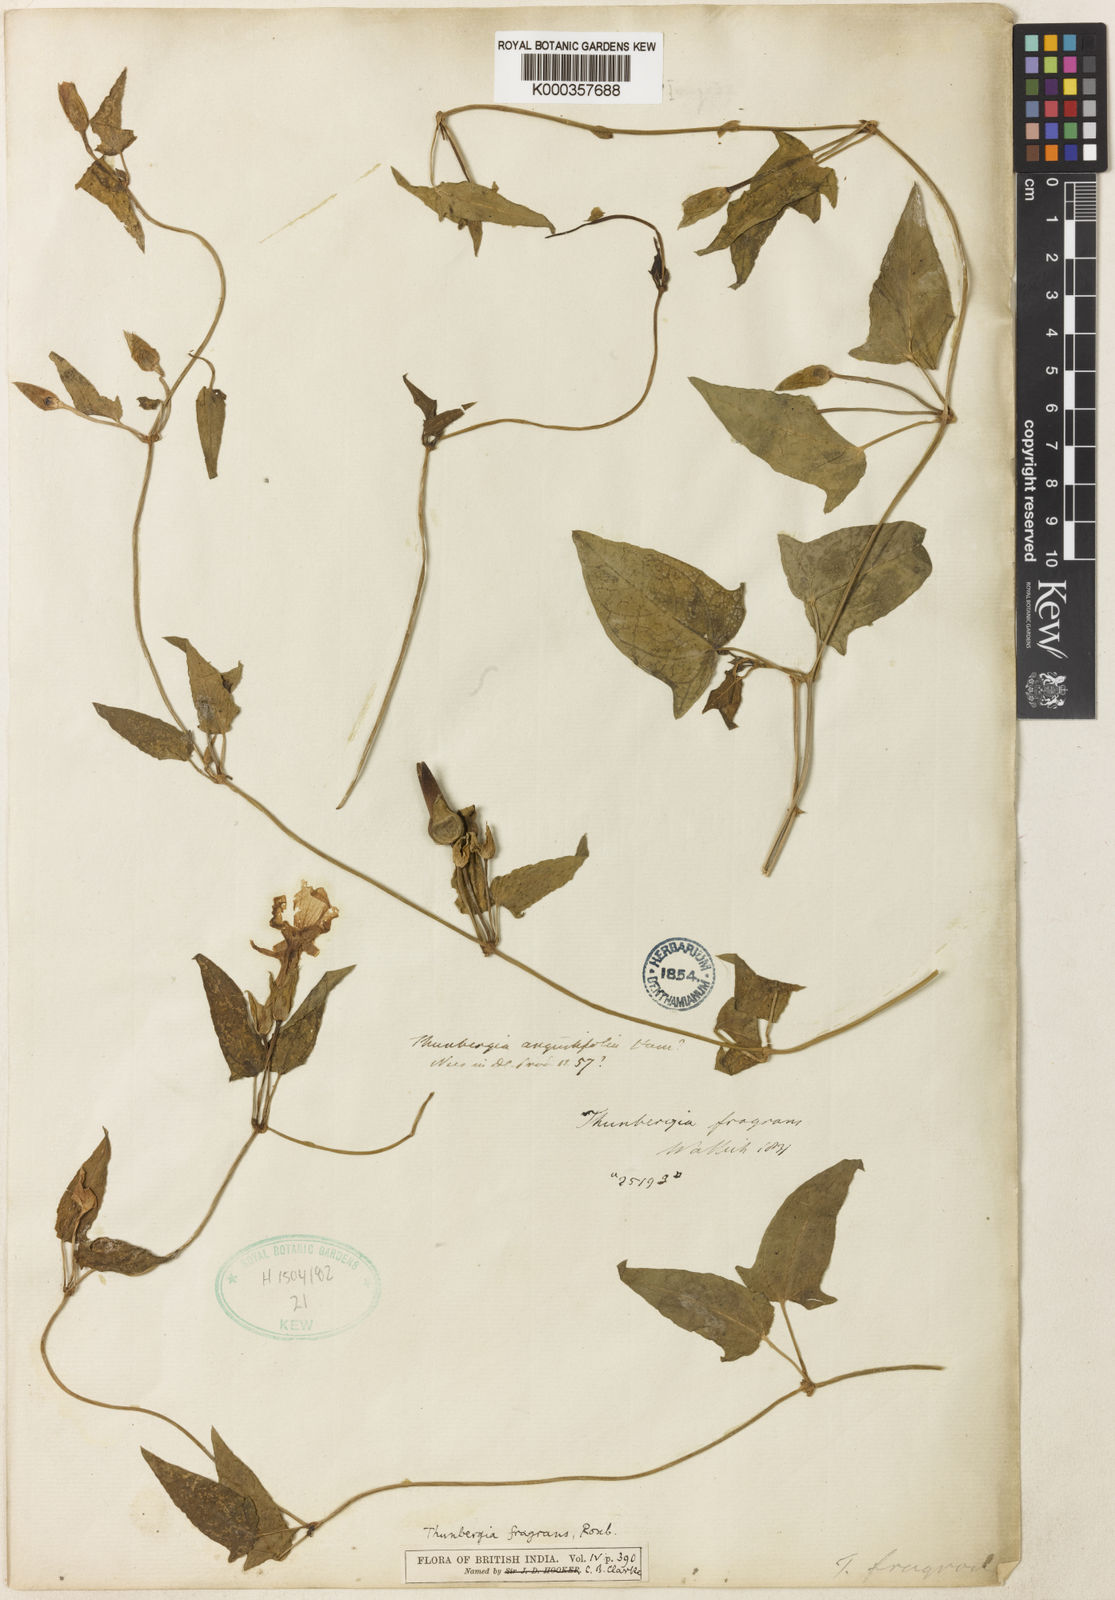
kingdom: Plantae
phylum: Tracheophyta
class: Magnoliopsida
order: Lamiales
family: Acanthaceae
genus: Thunbergia
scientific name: Thunbergia fragrans
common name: Whitelady
